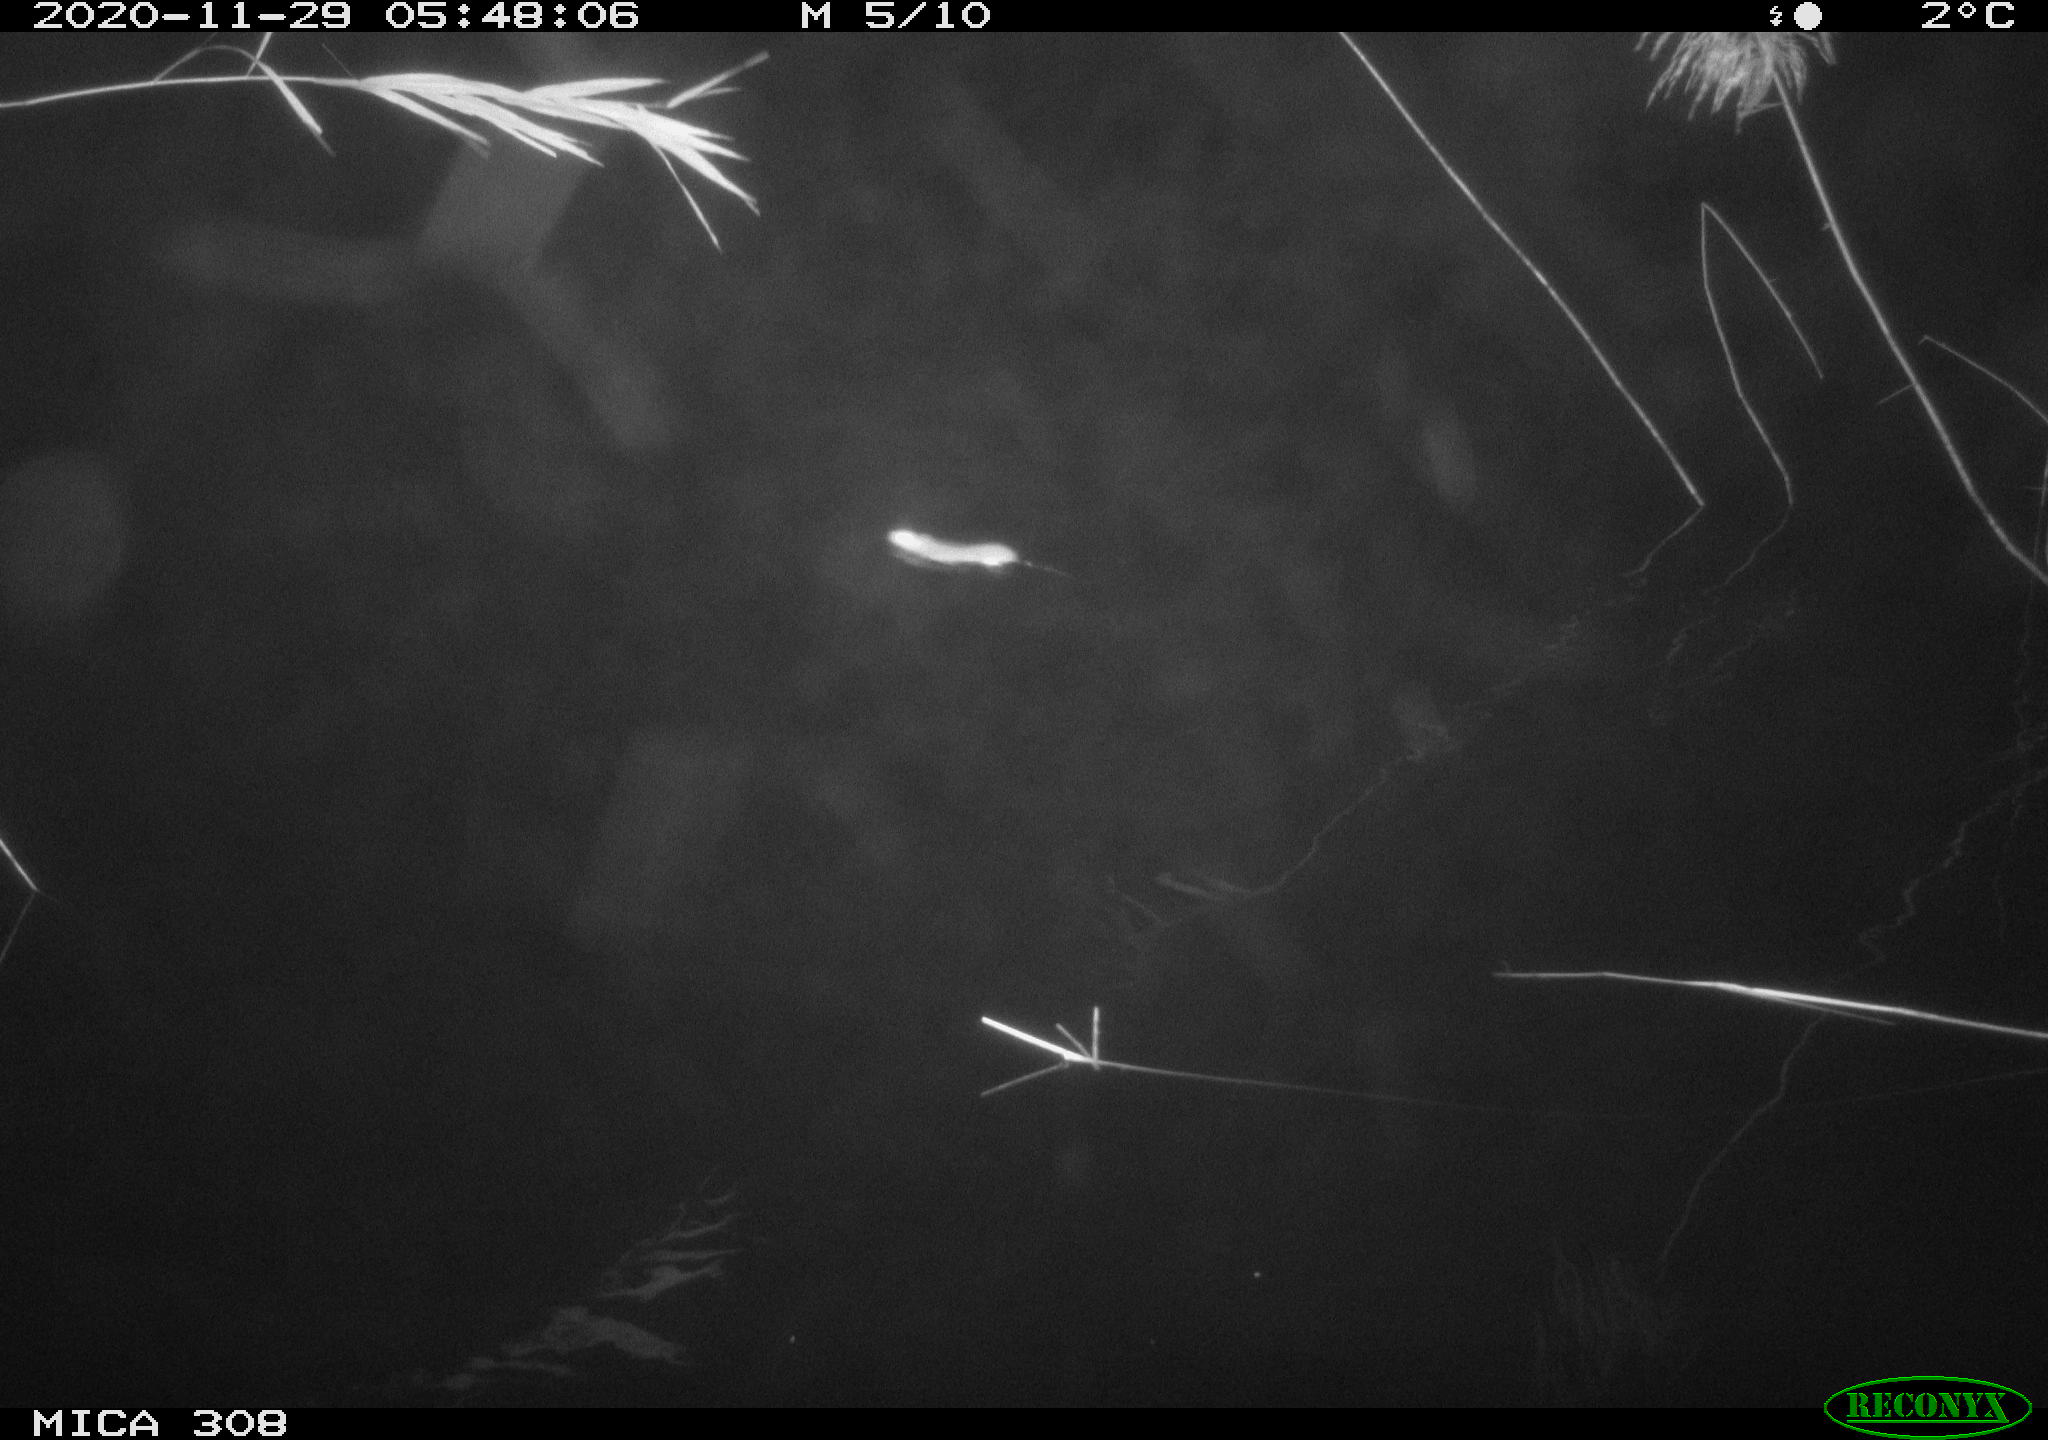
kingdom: Animalia
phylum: Chordata
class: Mammalia
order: Rodentia
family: Muridae
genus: Rattus
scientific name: Rattus norvegicus
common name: Brown rat
